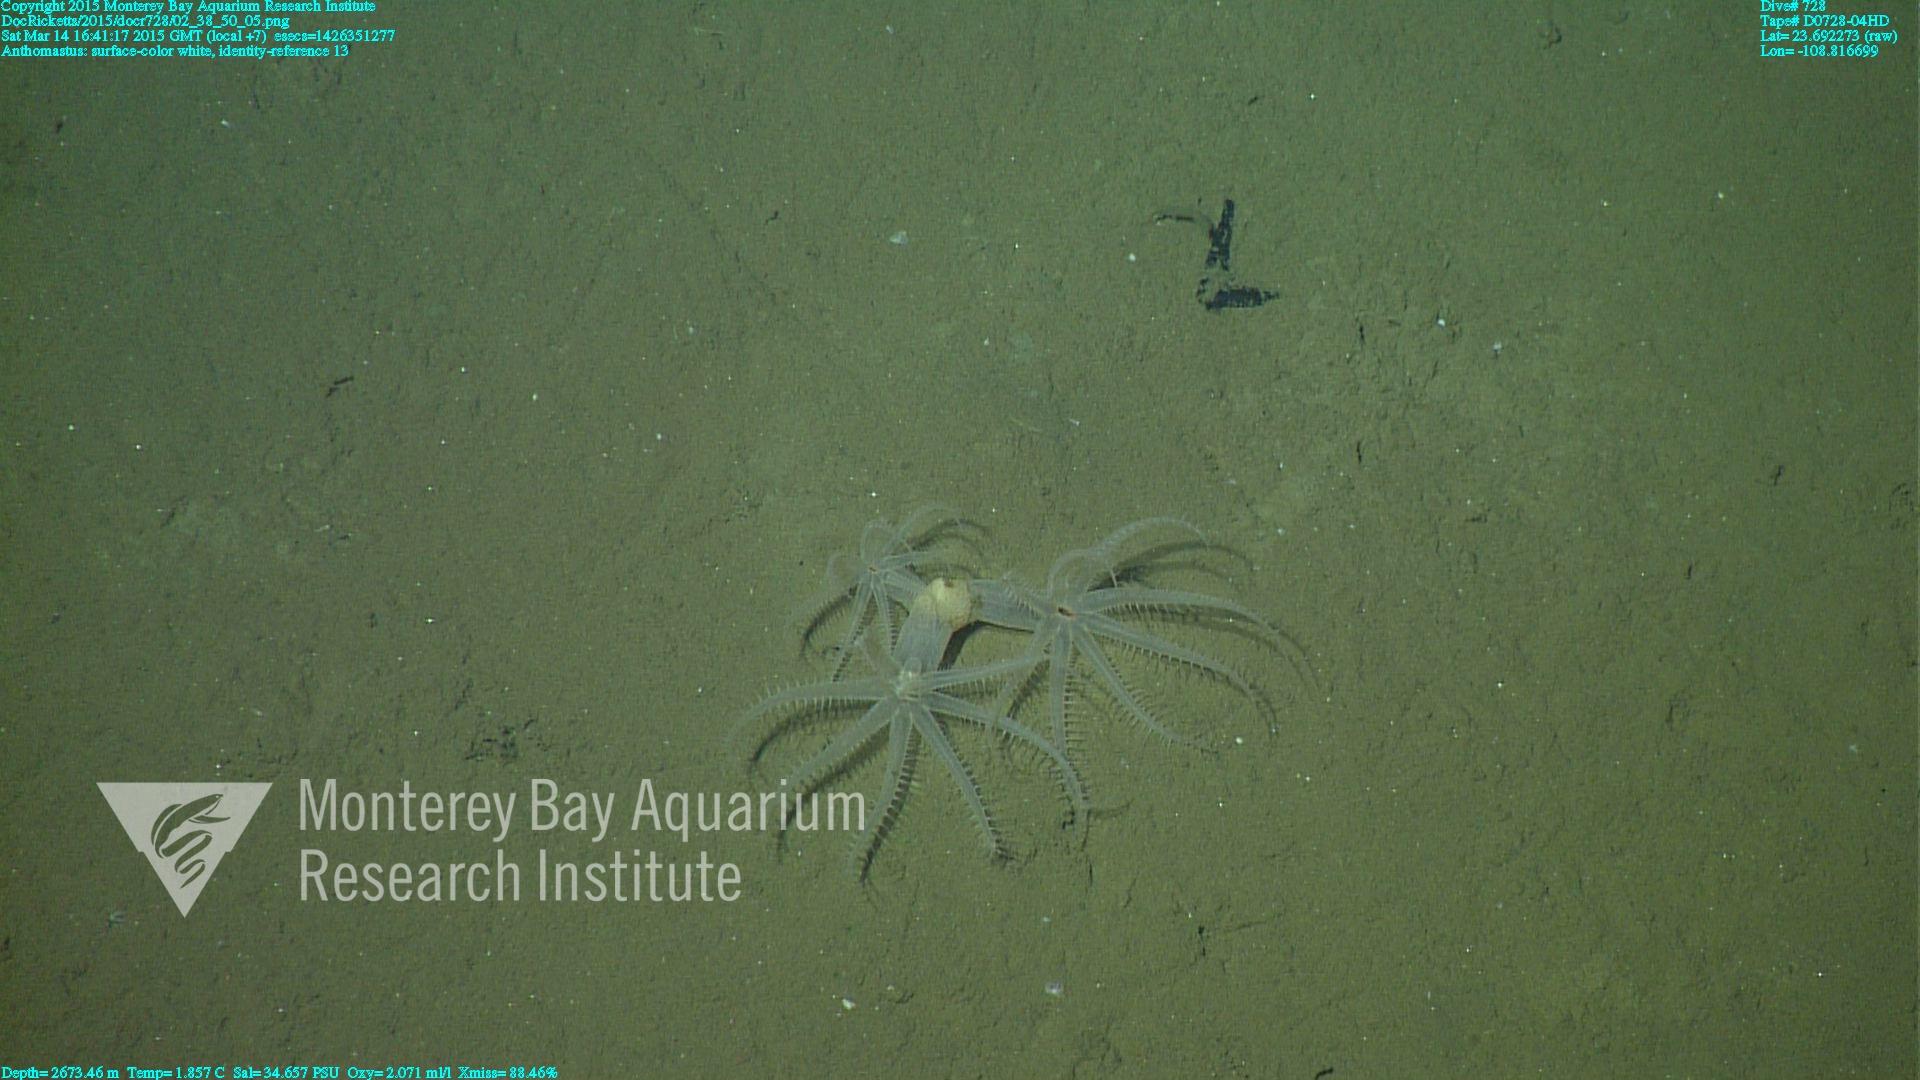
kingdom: Animalia
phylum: Cnidaria
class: Anthozoa
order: Scleralcyonacea
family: Coralliidae
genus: Bathyalcyon
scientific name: Bathyalcyon robustum
